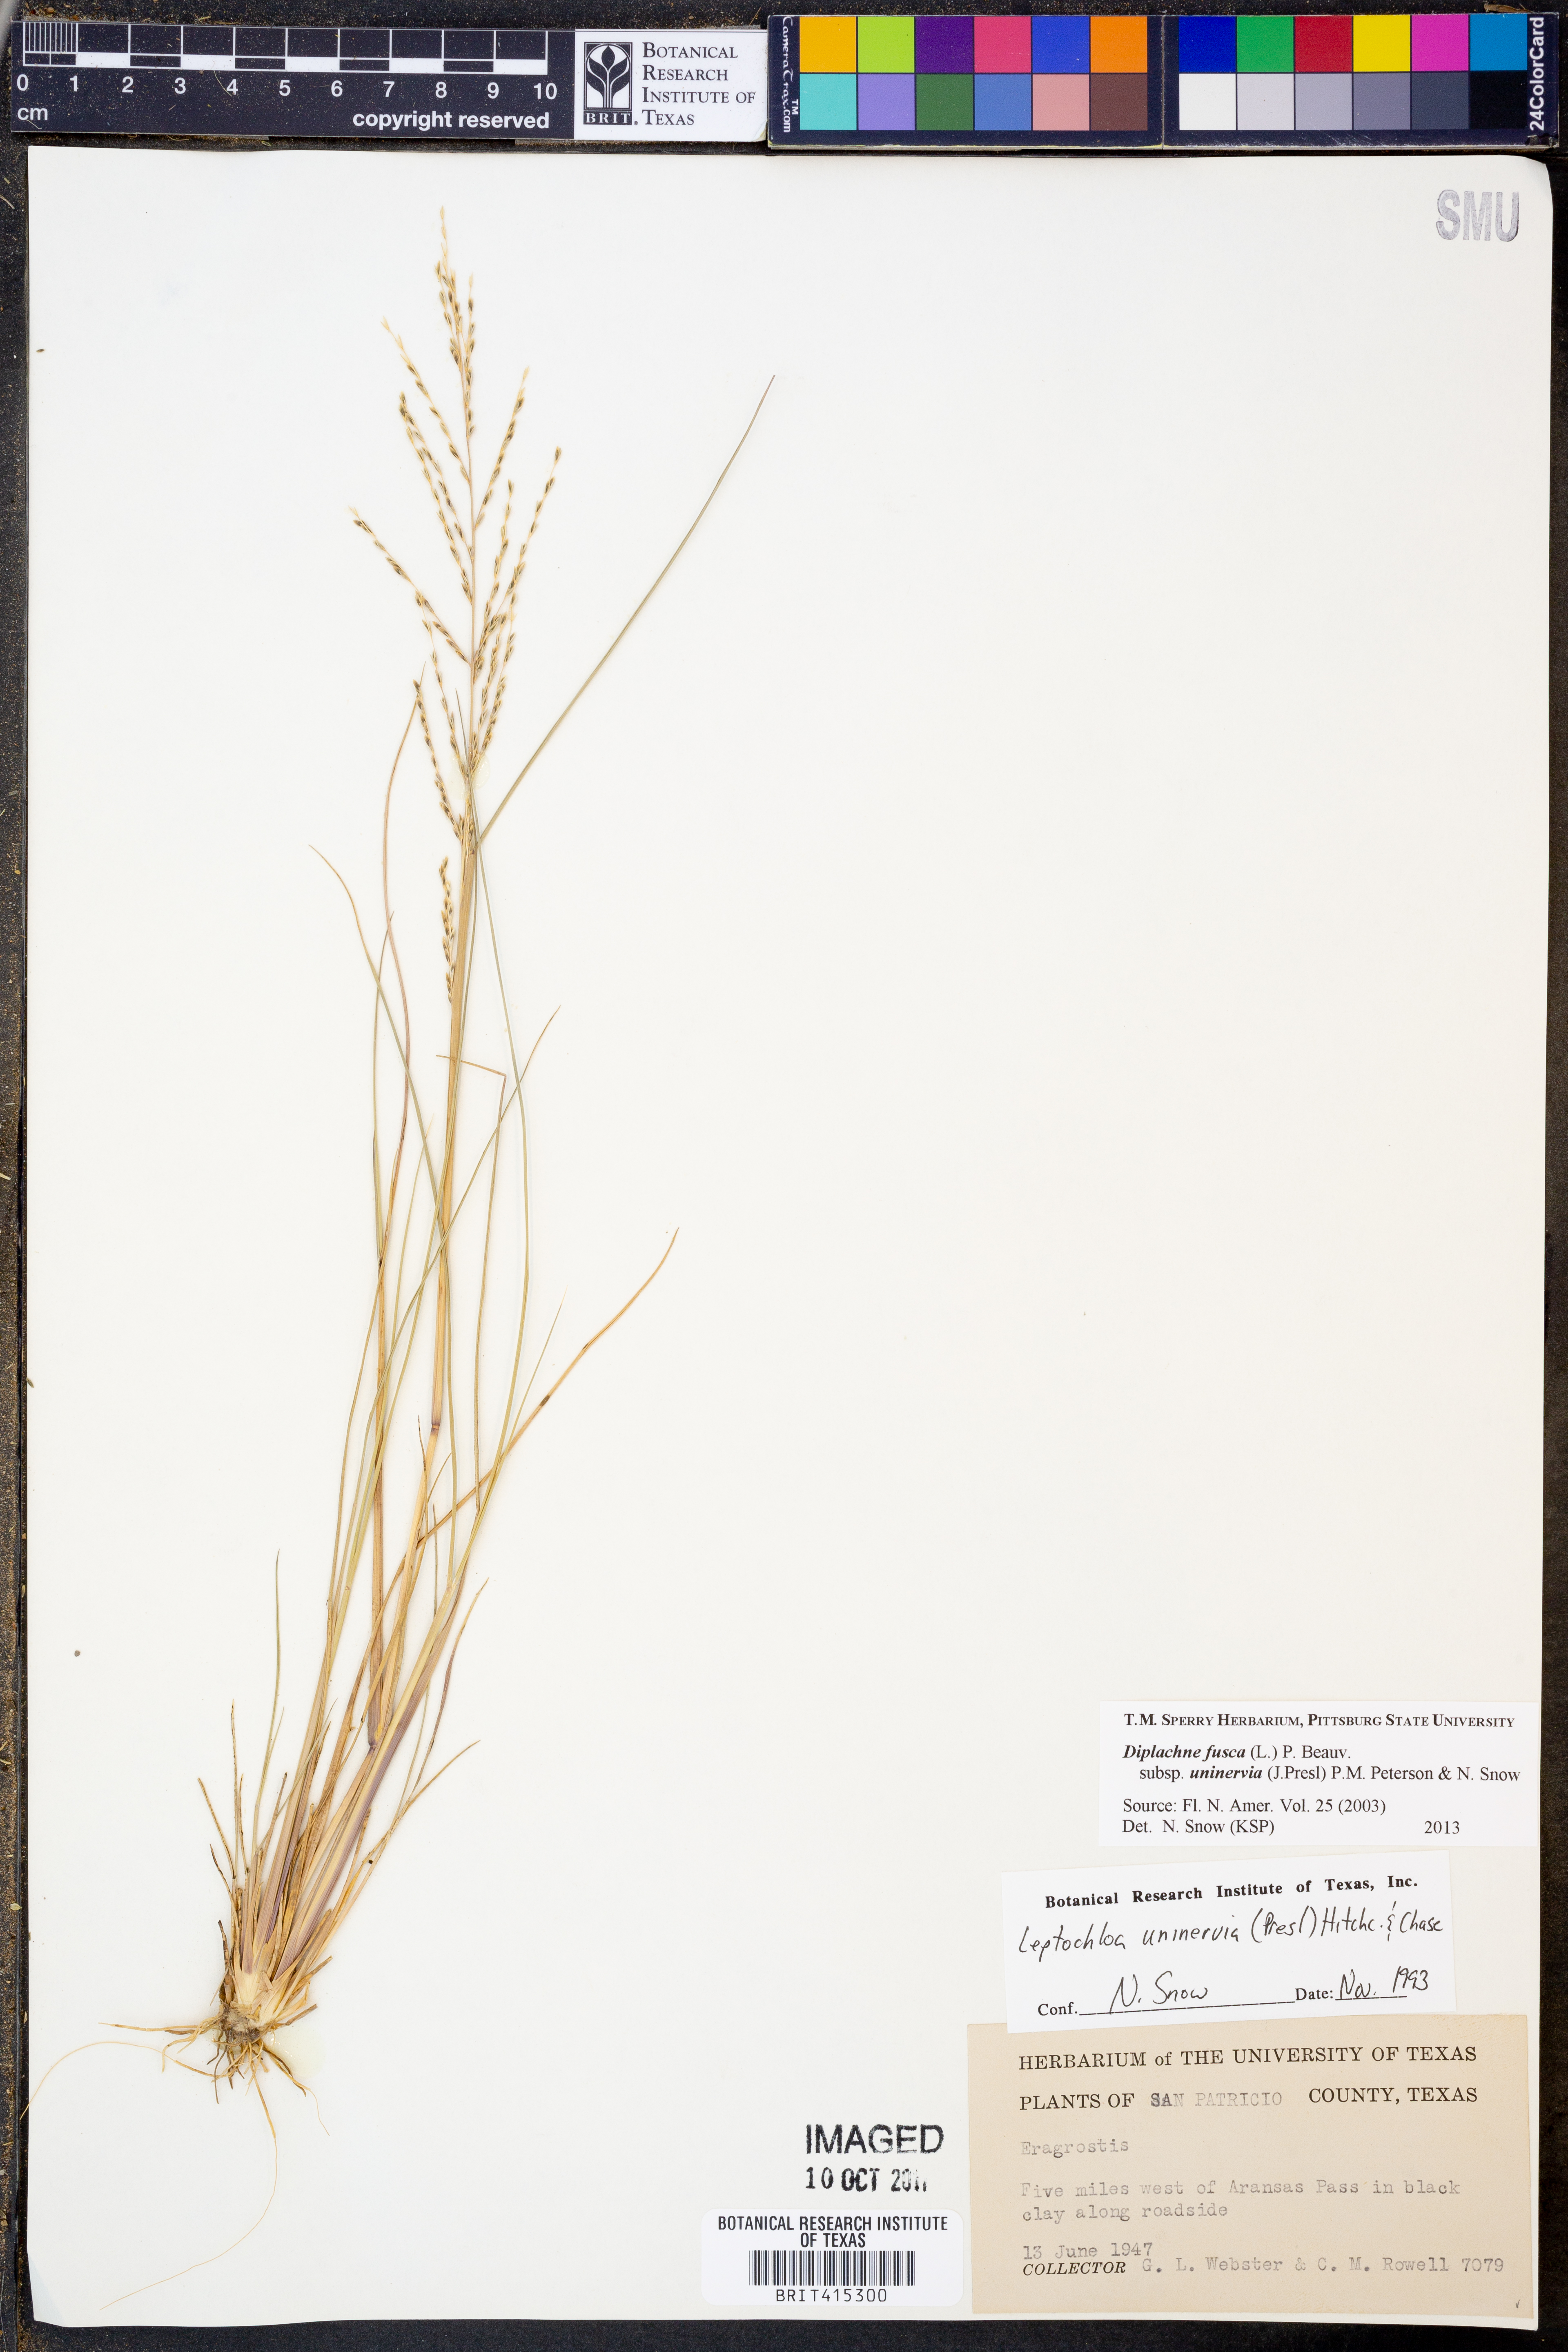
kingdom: Plantae
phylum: Tracheophyta
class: Liliopsida
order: Poales
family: Poaceae
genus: Diplachne
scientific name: Diplachne fusca
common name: Brown beetle grass
